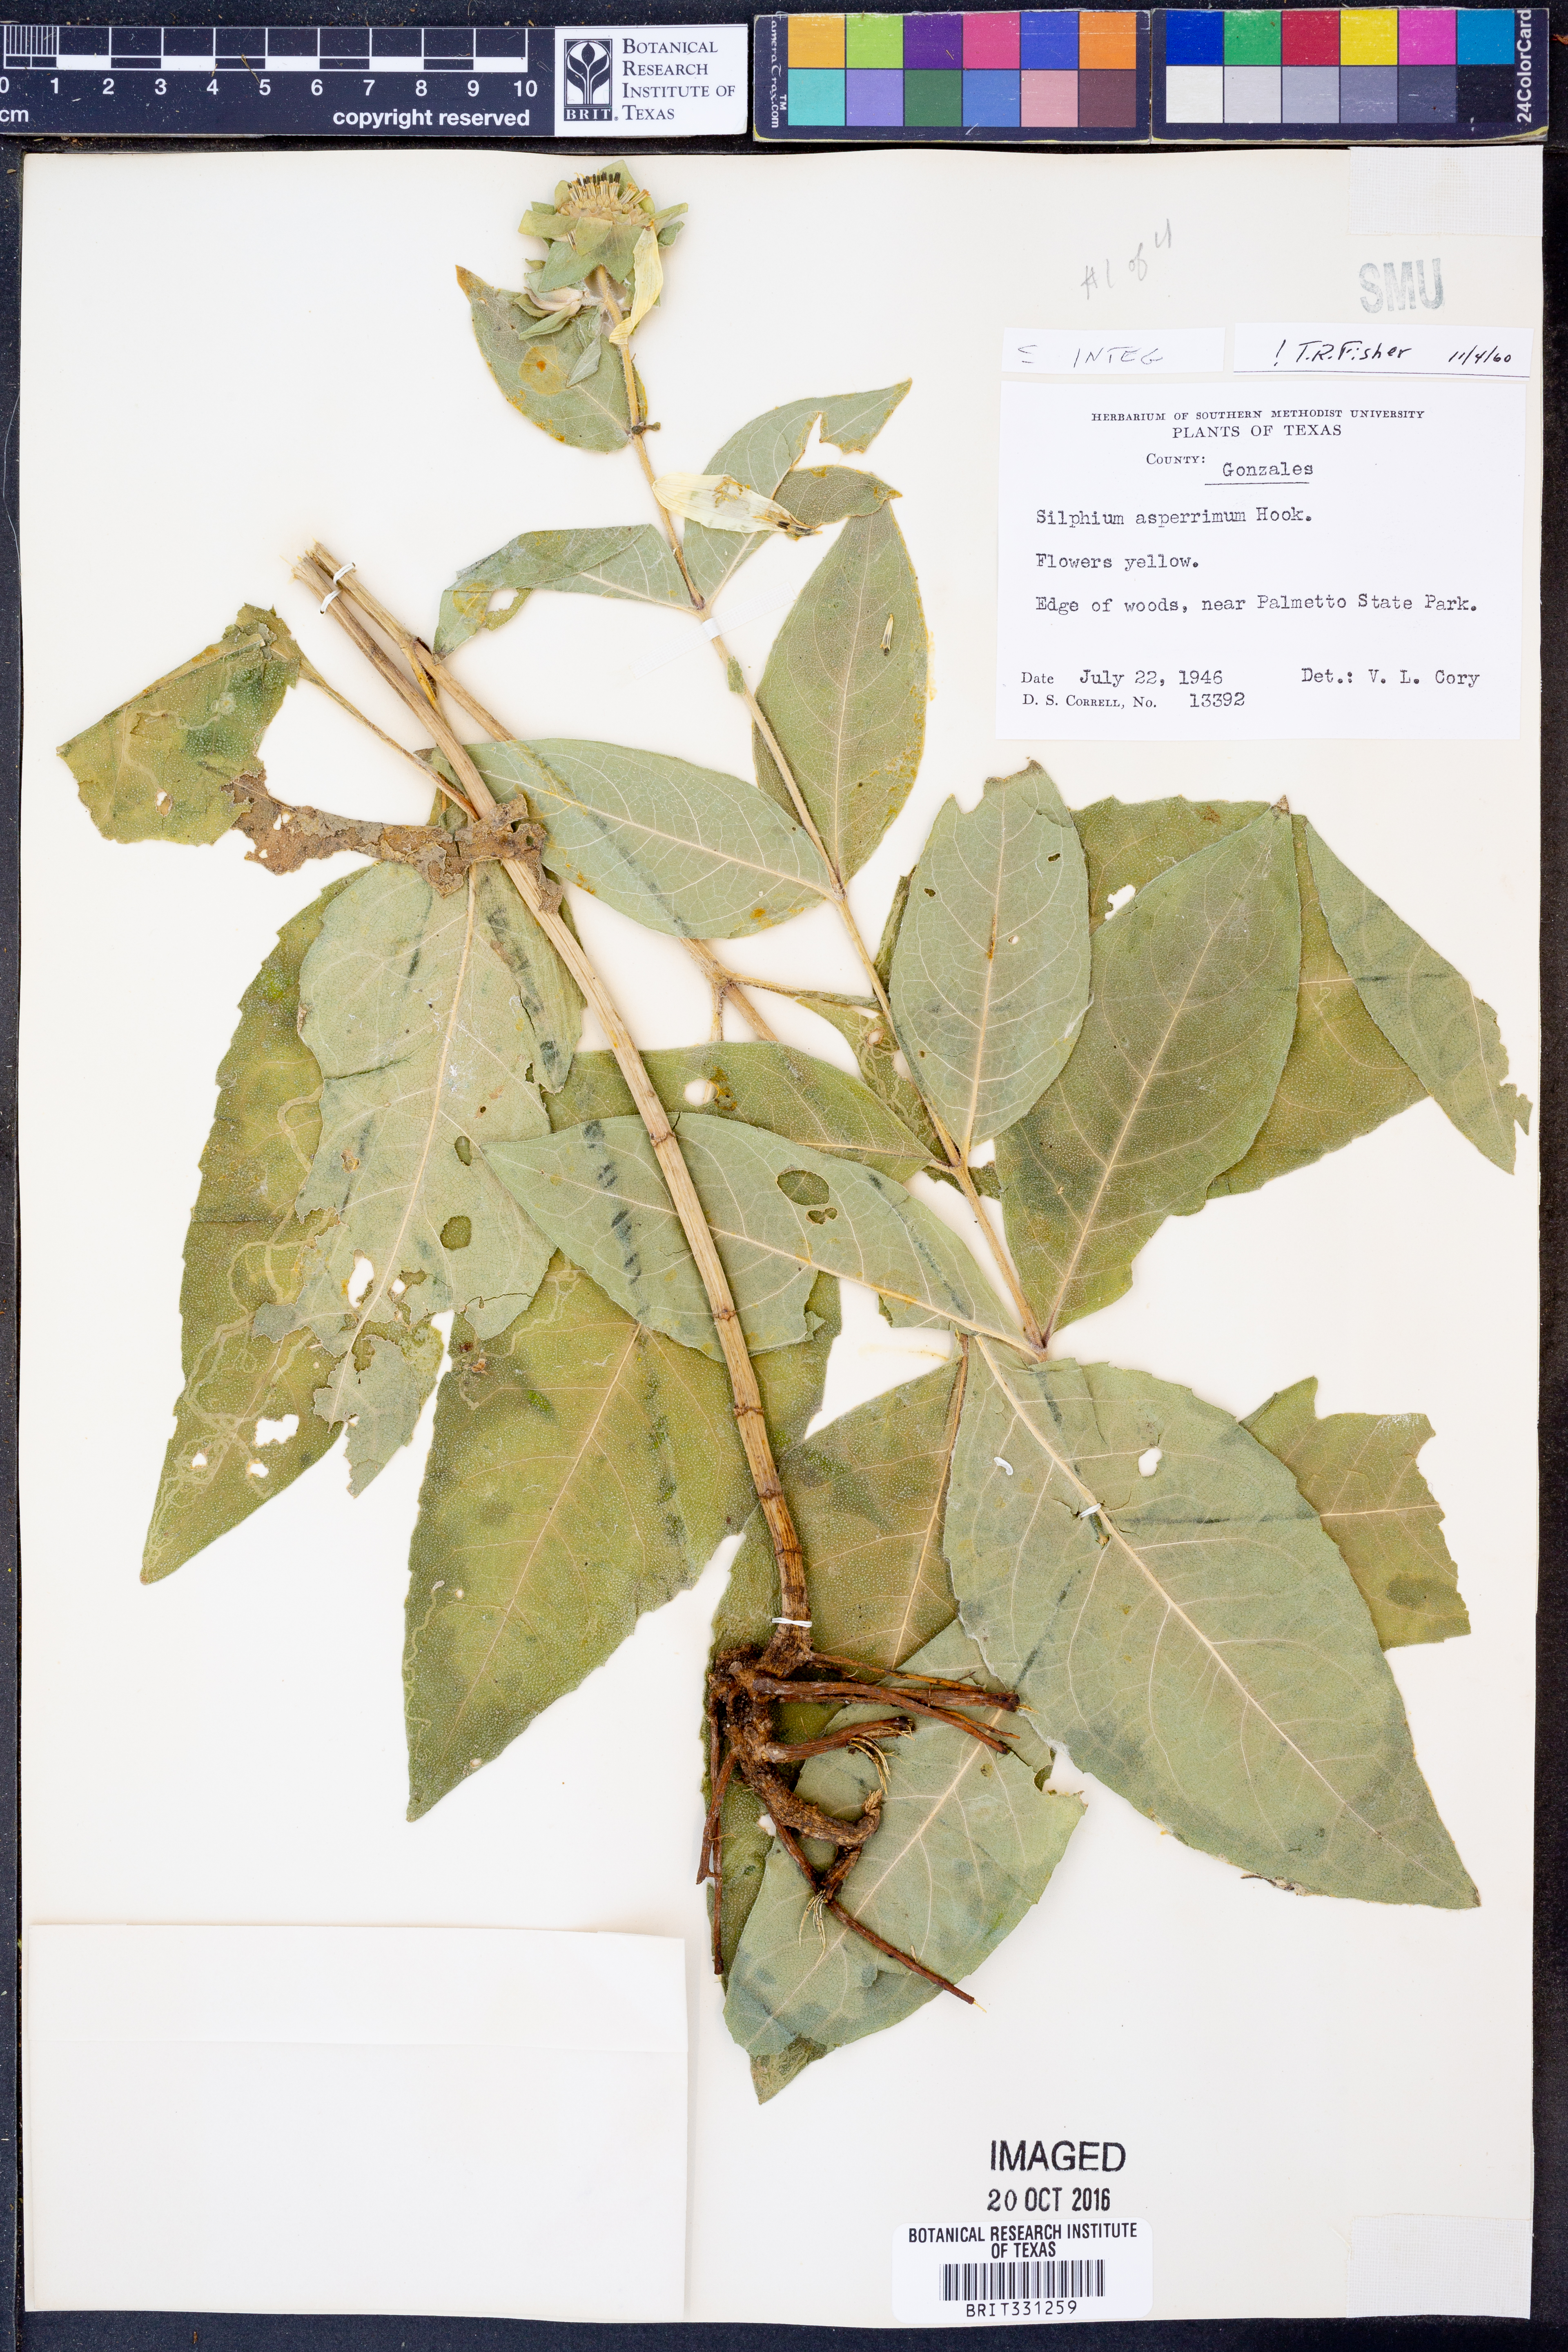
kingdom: Plantae
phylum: Tracheophyta
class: Magnoliopsida
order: Asterales
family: Asteraceae
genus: Silphium
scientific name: Silphium integrifolium
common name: Whole-leaf rosinweed
